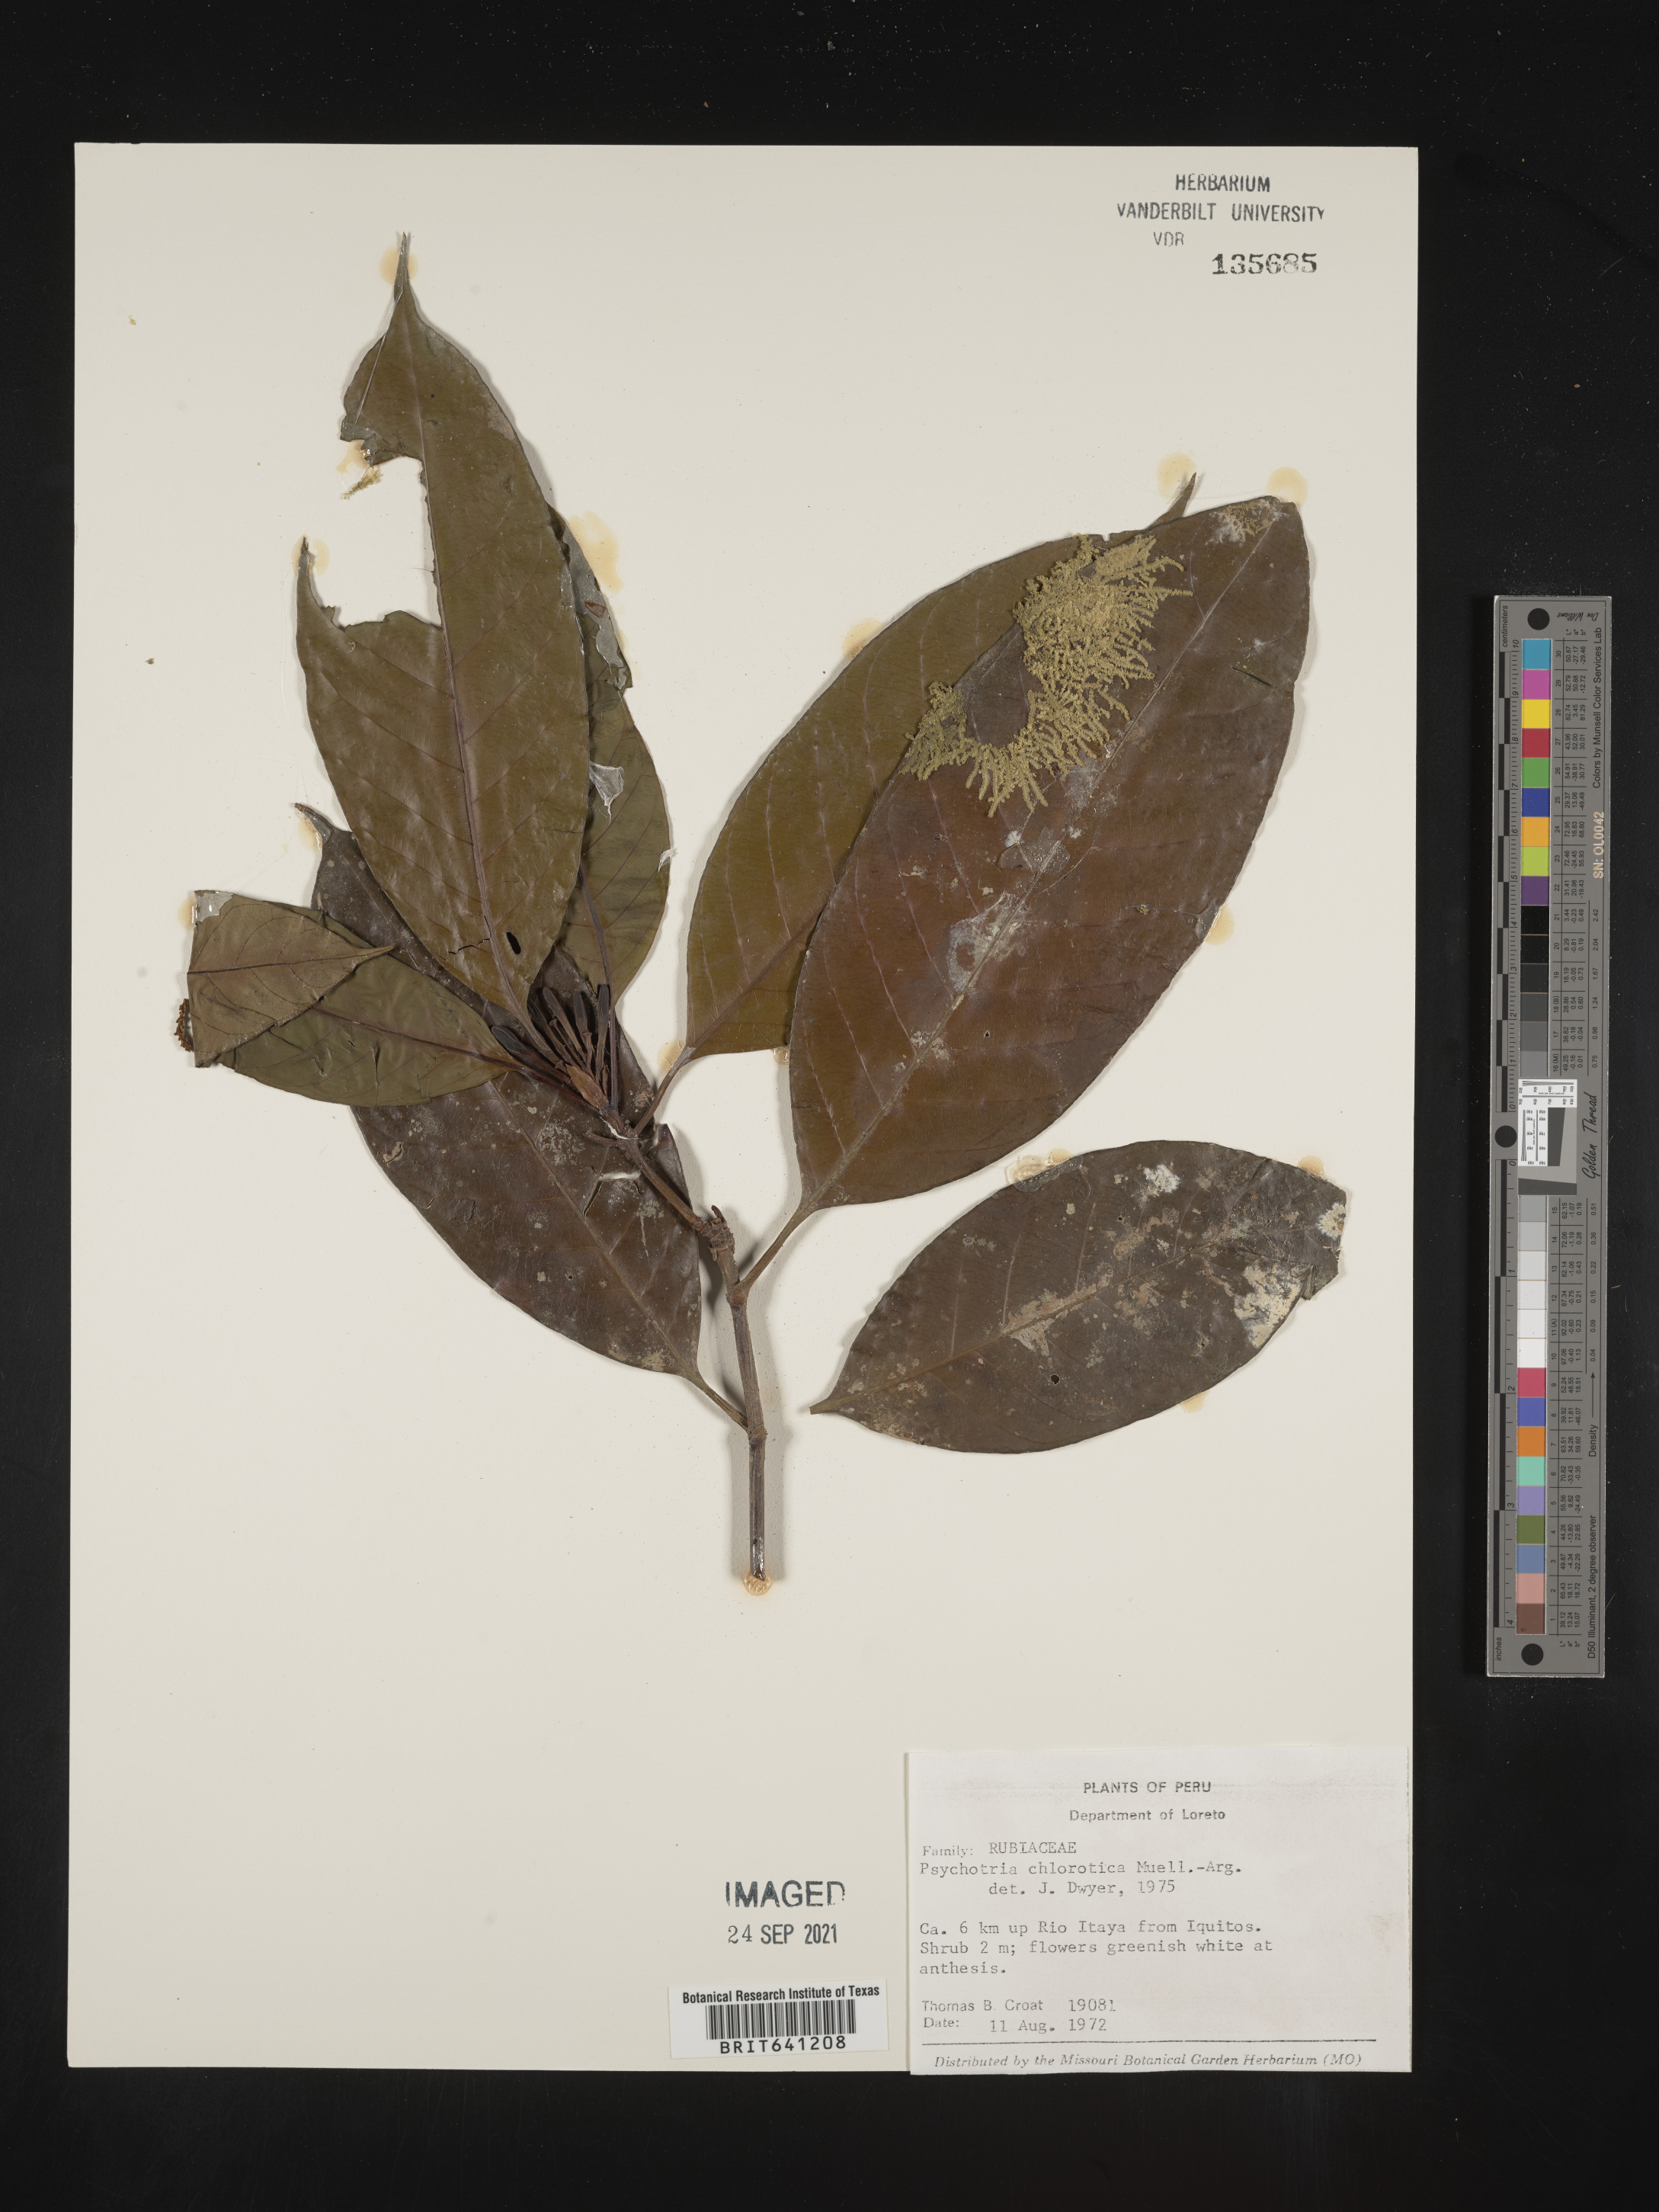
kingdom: Plantae
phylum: Tracheophyta
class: Magnoliopsida
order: Gentianales
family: Rubiaceae
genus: Psychotria
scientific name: Psychotria
